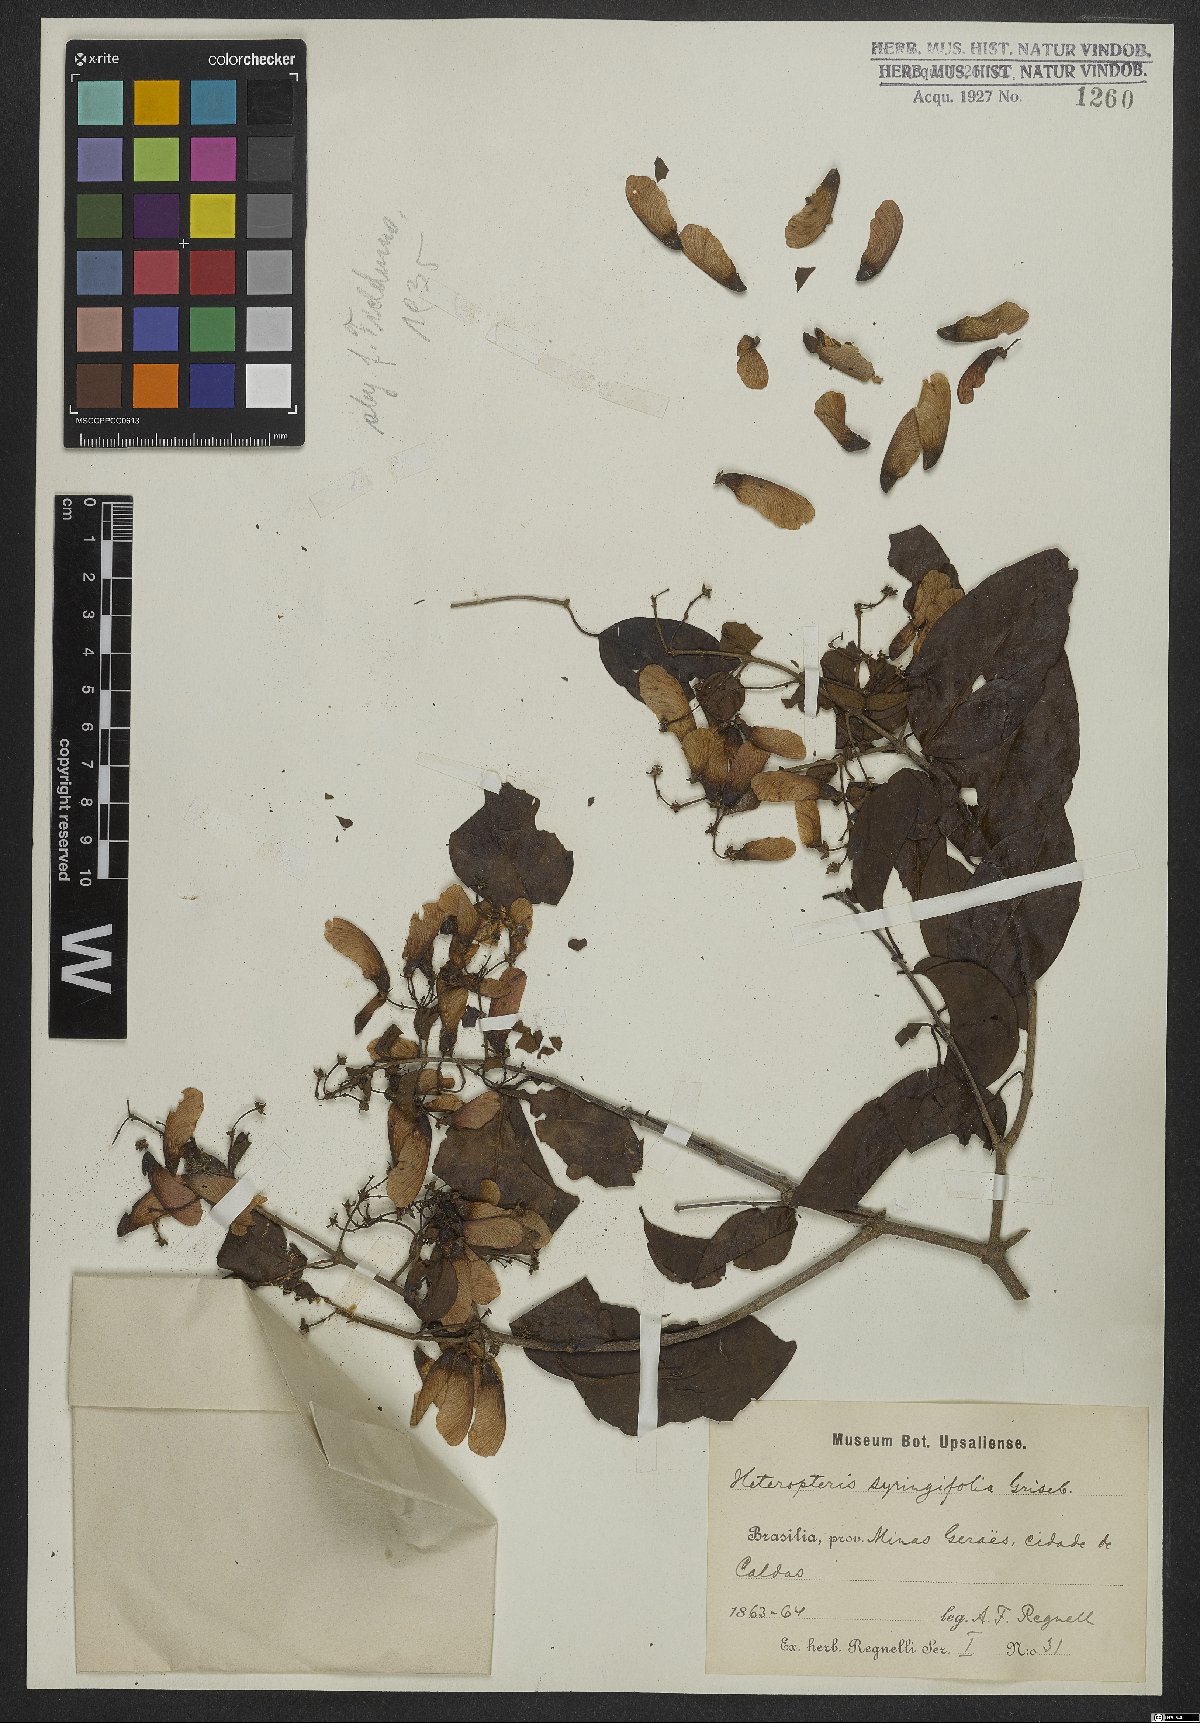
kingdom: Plantae
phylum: Tracheophyta
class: Magnoliopsida
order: Malpighiales
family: Malpighiaceae
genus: Heteropterys
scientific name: Heteropterys syringifolia
